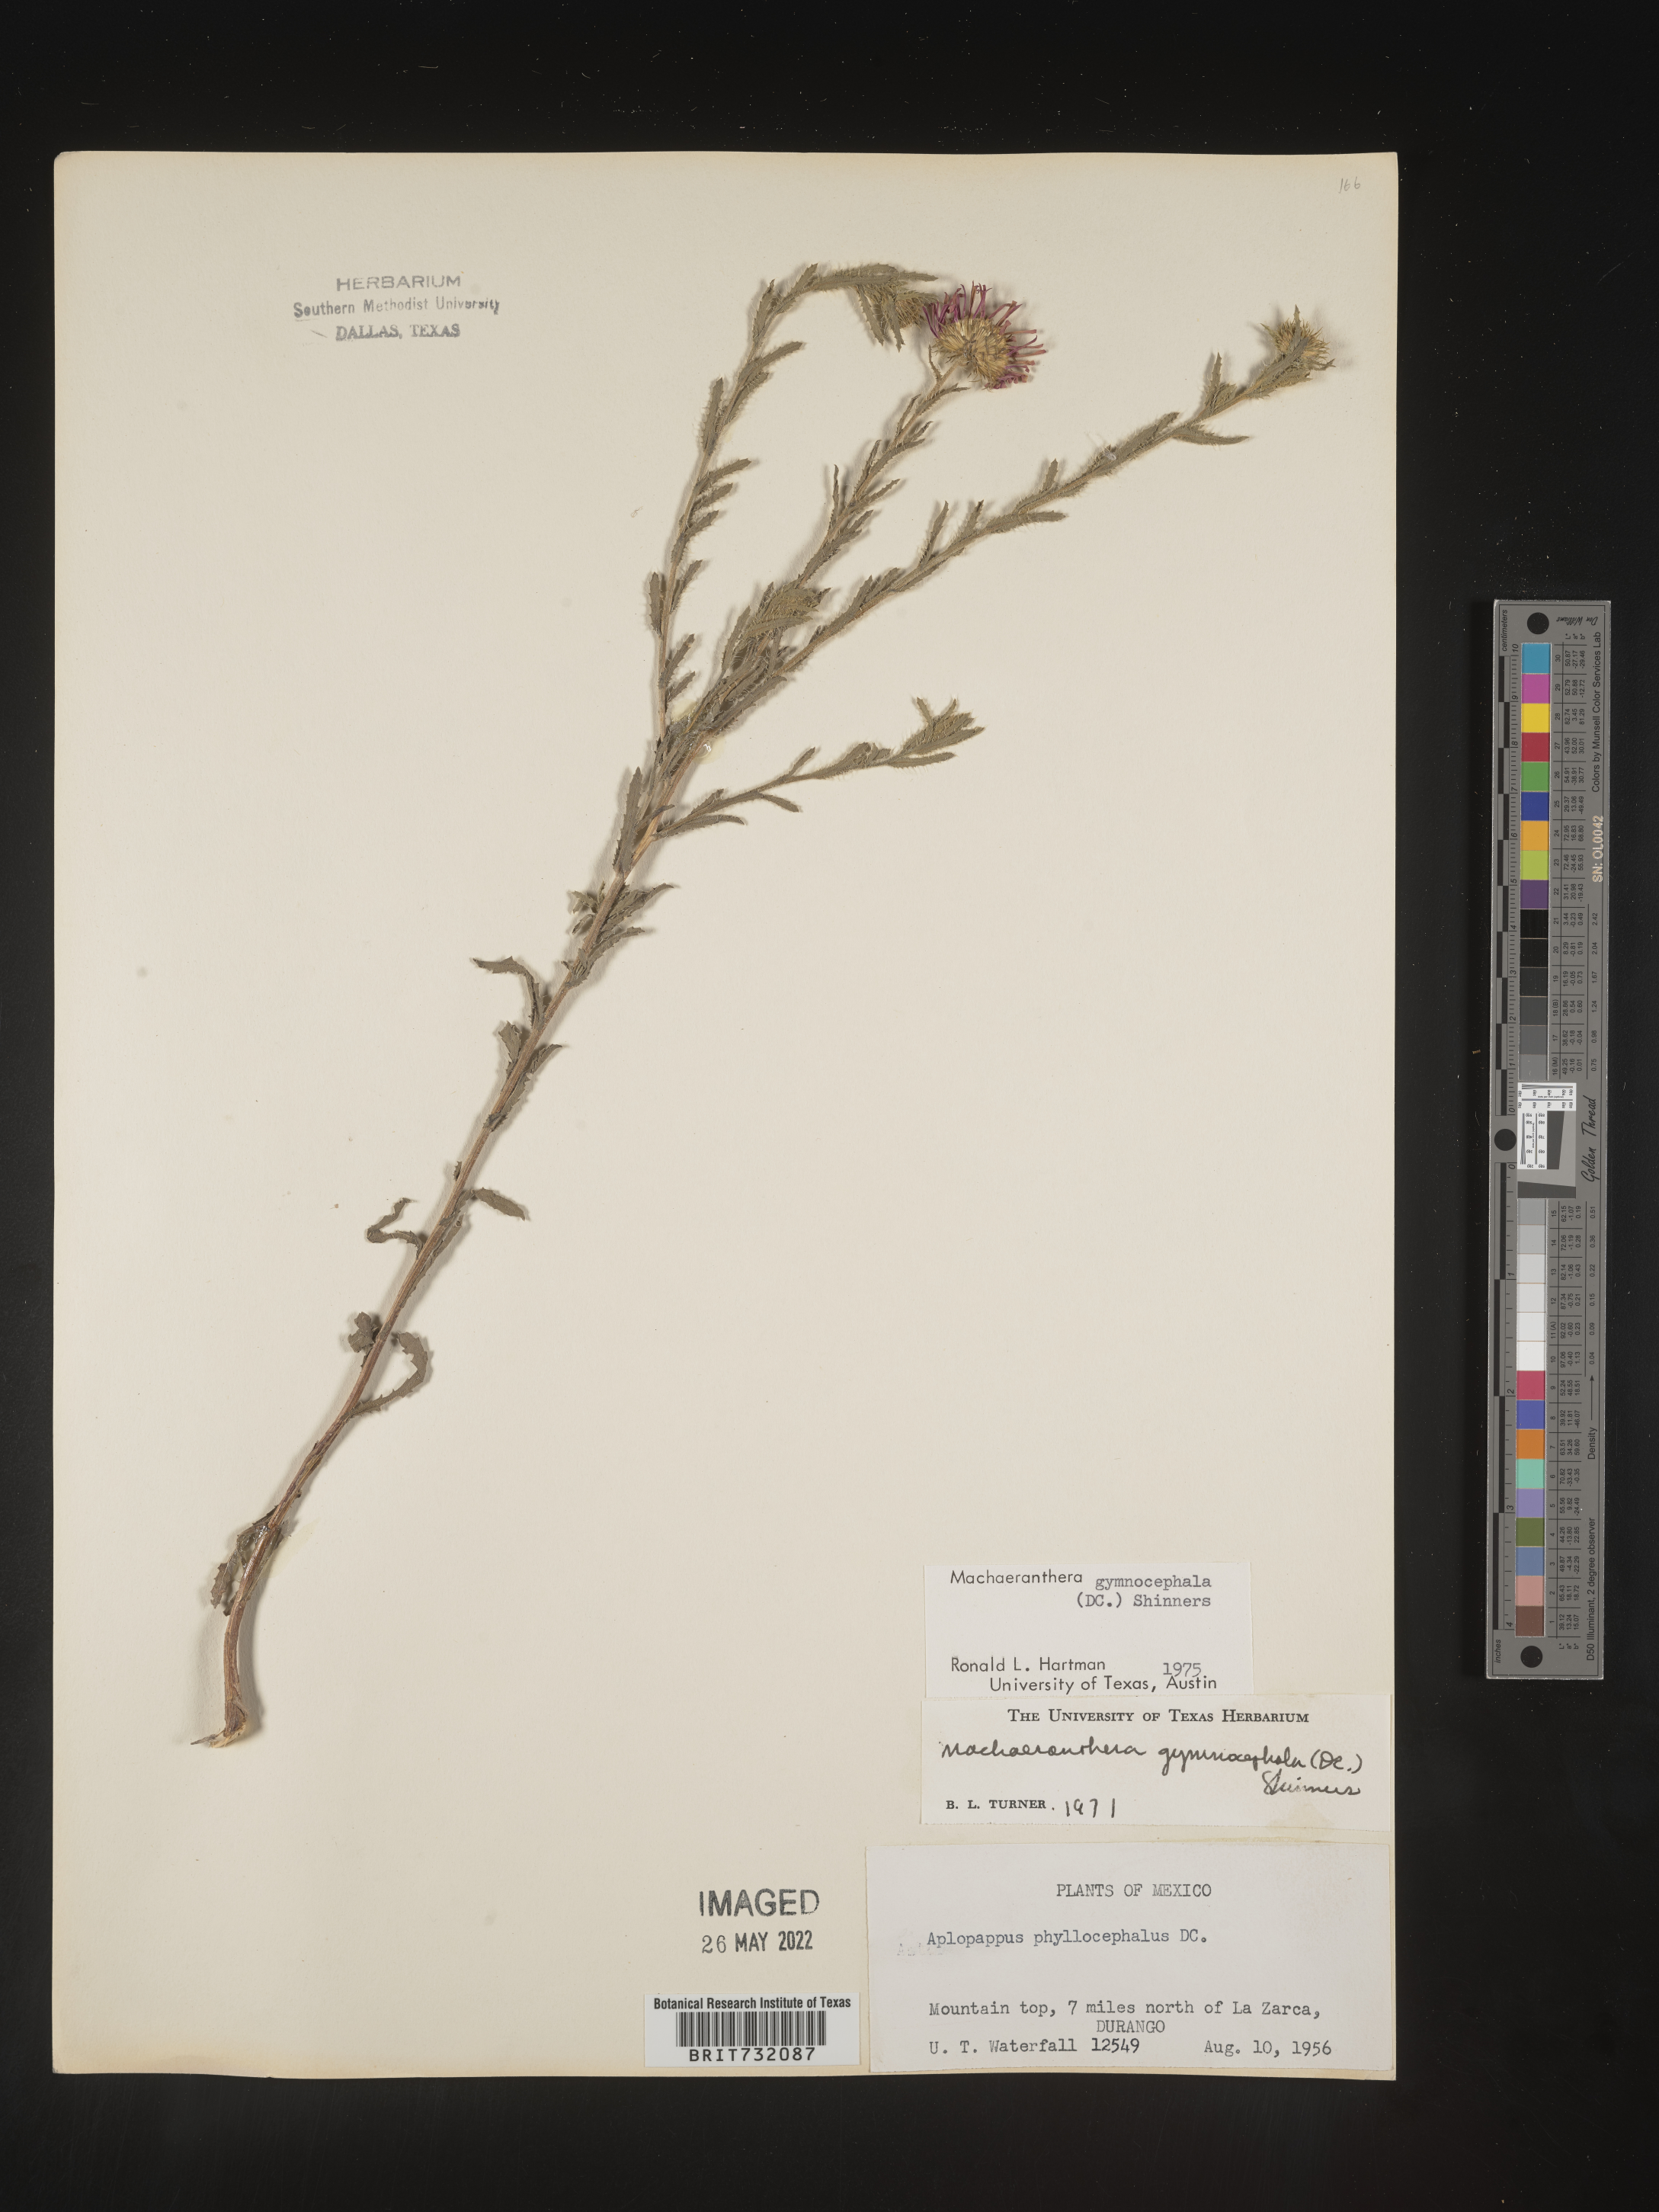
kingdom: Plantae
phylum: Tracheophyta
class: Magnoliopsida
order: Asterales
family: Asteraceae
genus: Xanthisma
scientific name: Xanthisma blephariphyllum
